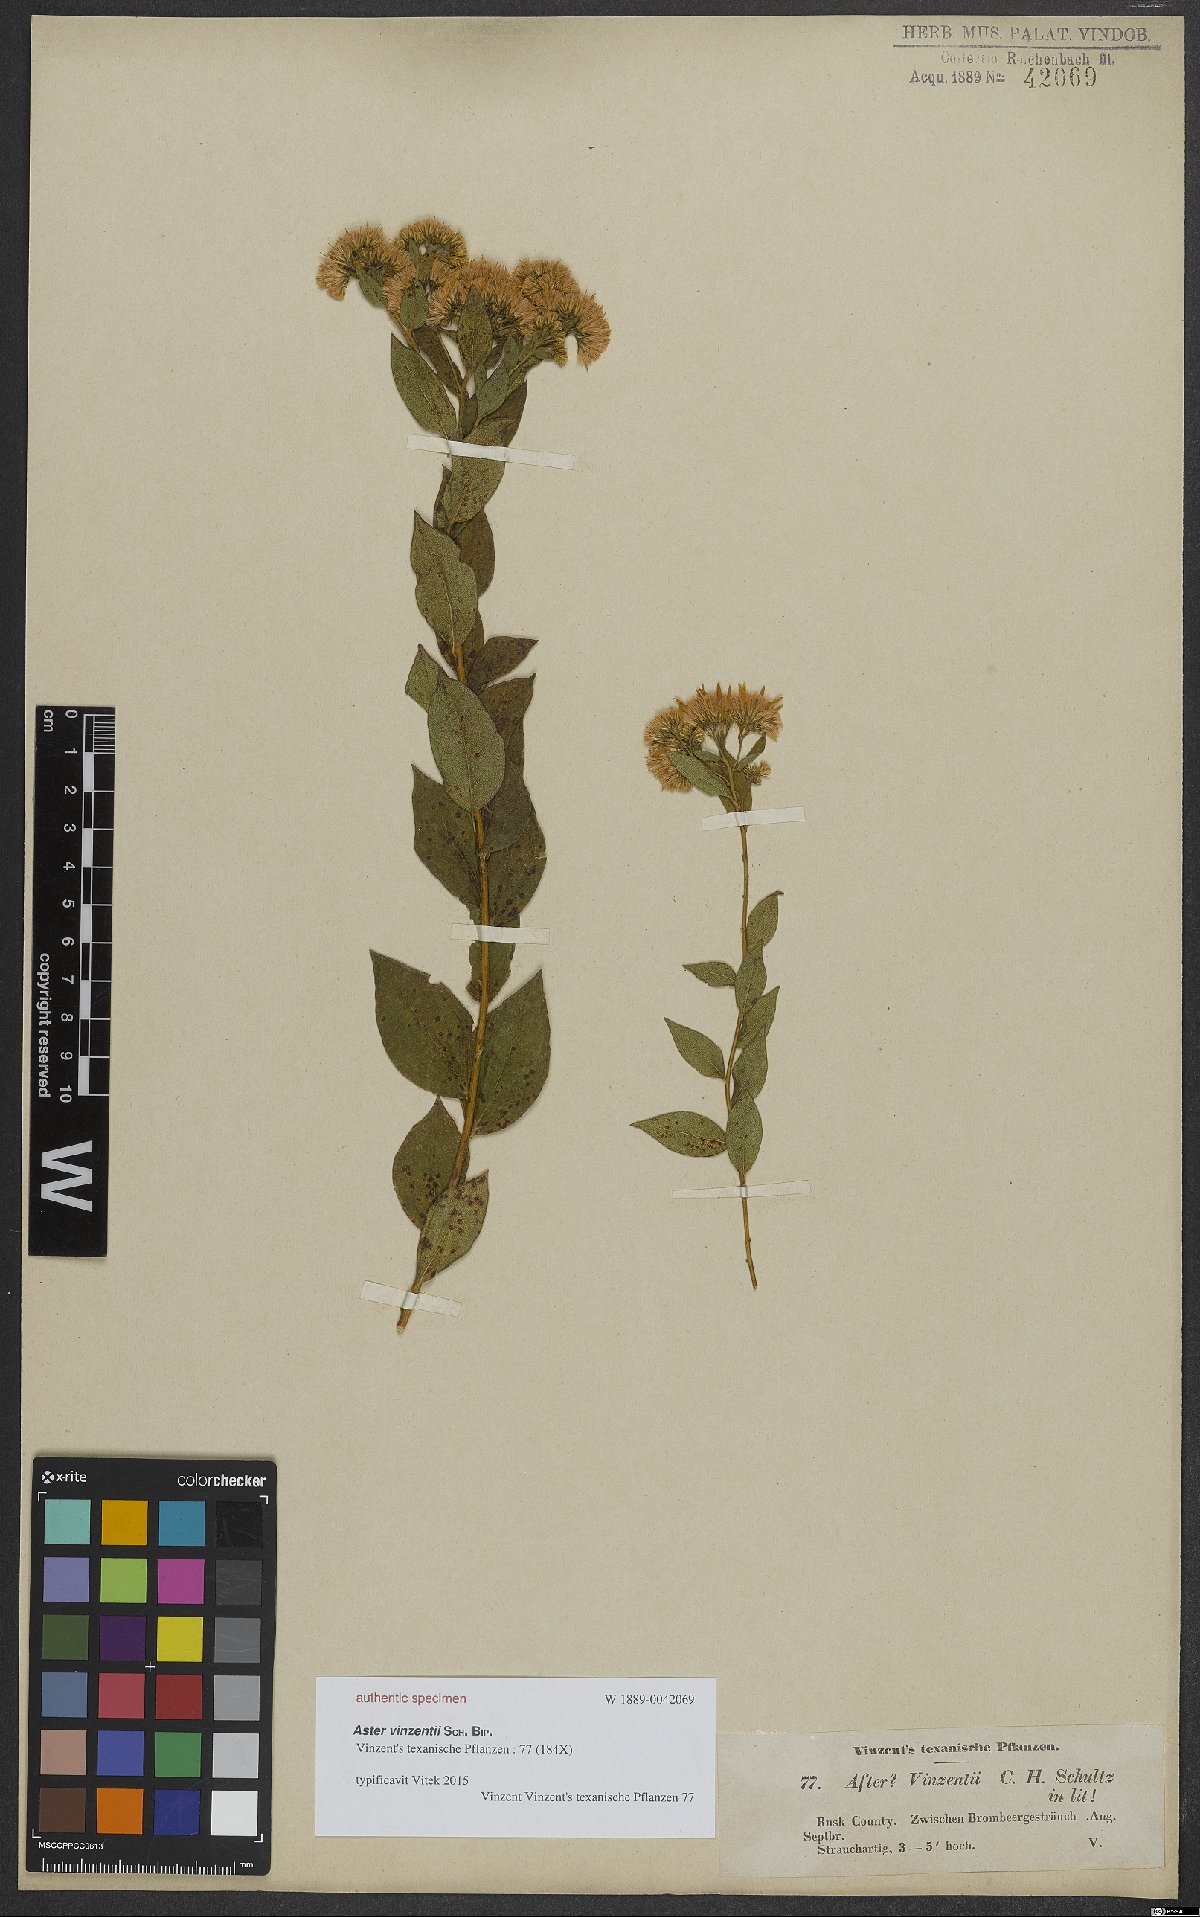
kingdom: Plantae
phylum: Tracheophyta
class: Magnoliopsida
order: Asterales
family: Asteraceae
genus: Aster
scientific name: Aster
